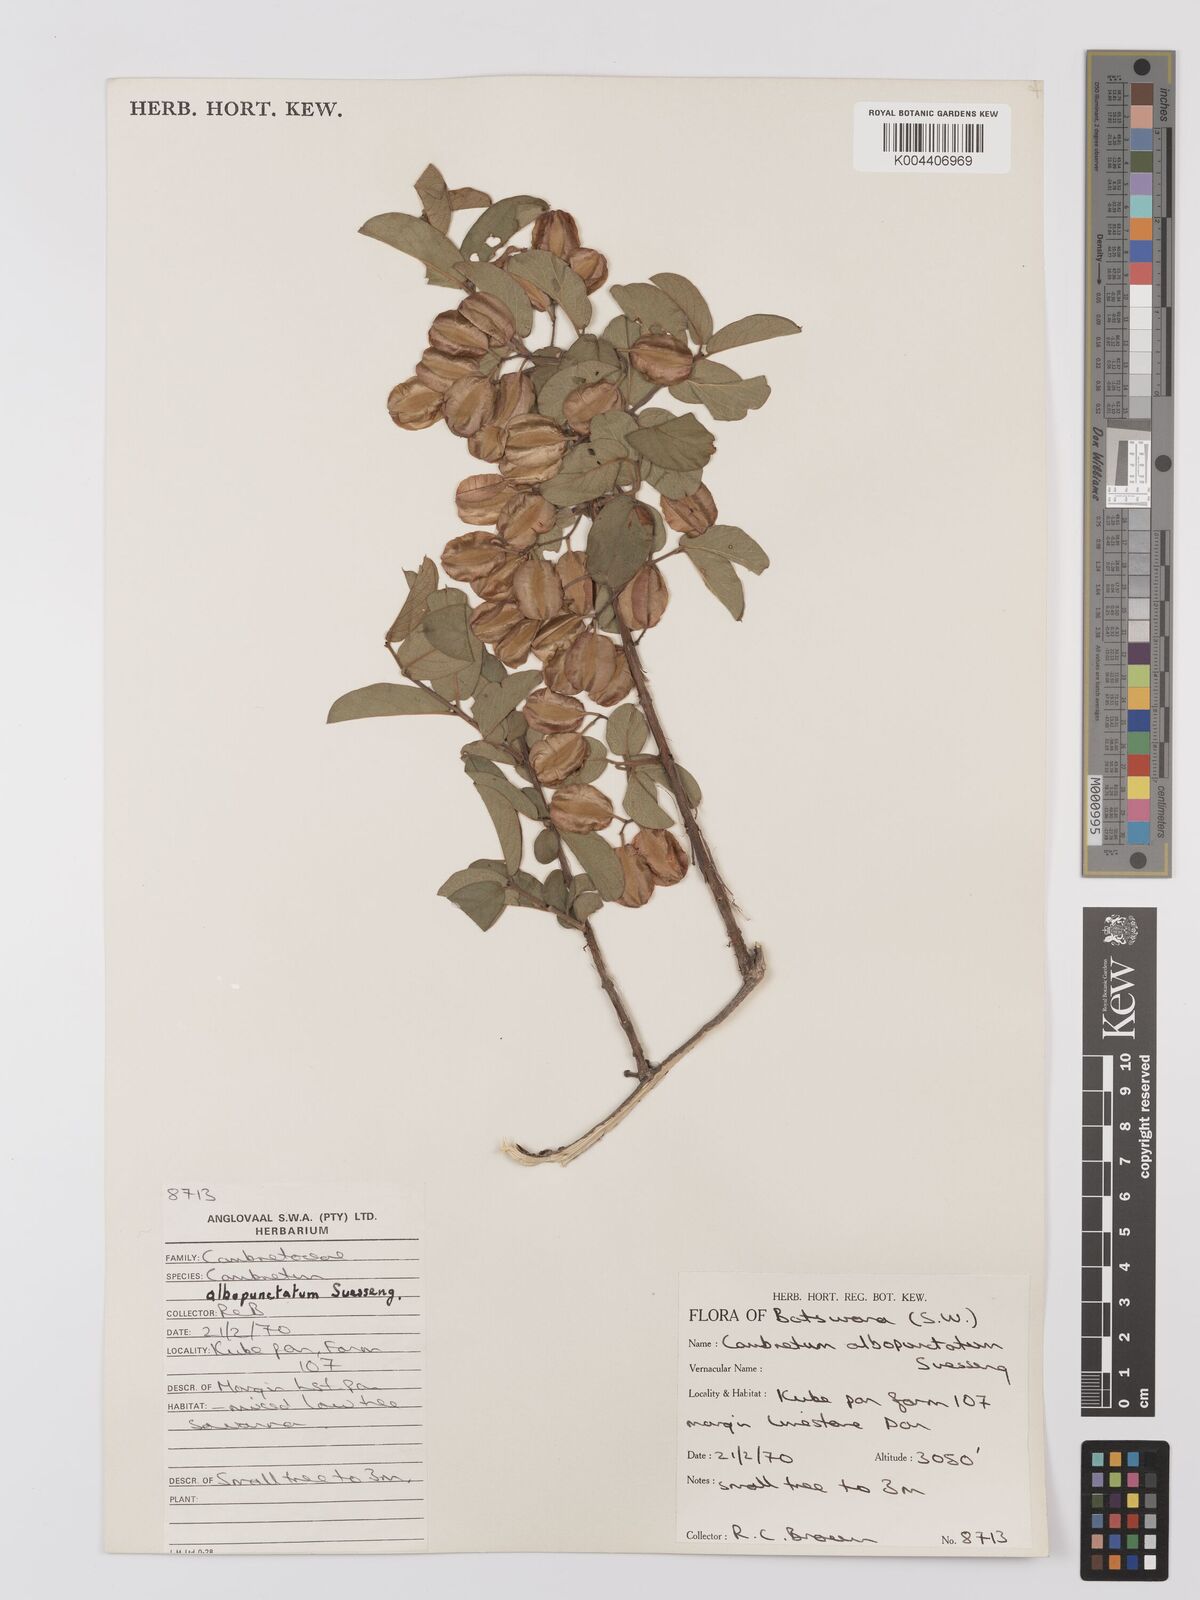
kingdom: Plantae
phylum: Tracheophyta
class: Magnoliopsida
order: Myrtales
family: Combretaceae
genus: Combretum
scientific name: Combretum albopunctatum
